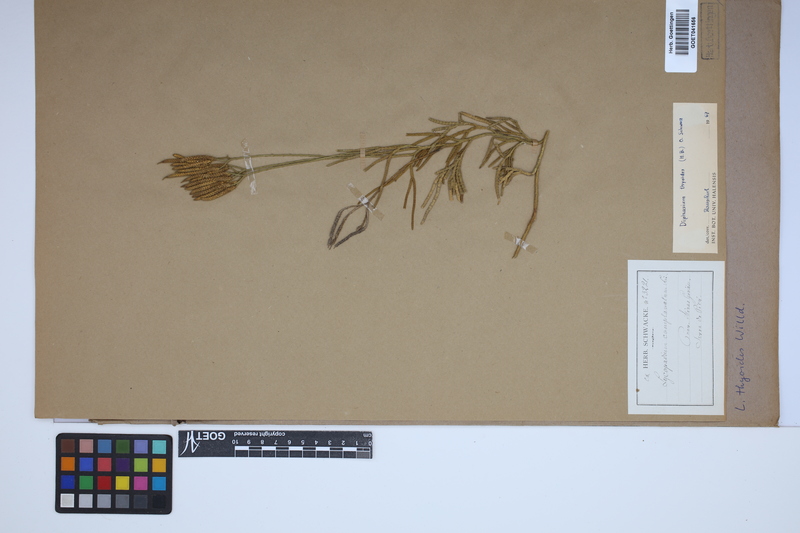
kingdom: Plantae
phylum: Tracheophyta
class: Lycopodiopsida
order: Lycopodiales
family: Lycopodiaceae
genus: Diphasiastrum
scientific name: Diphasiastrum thyoides
